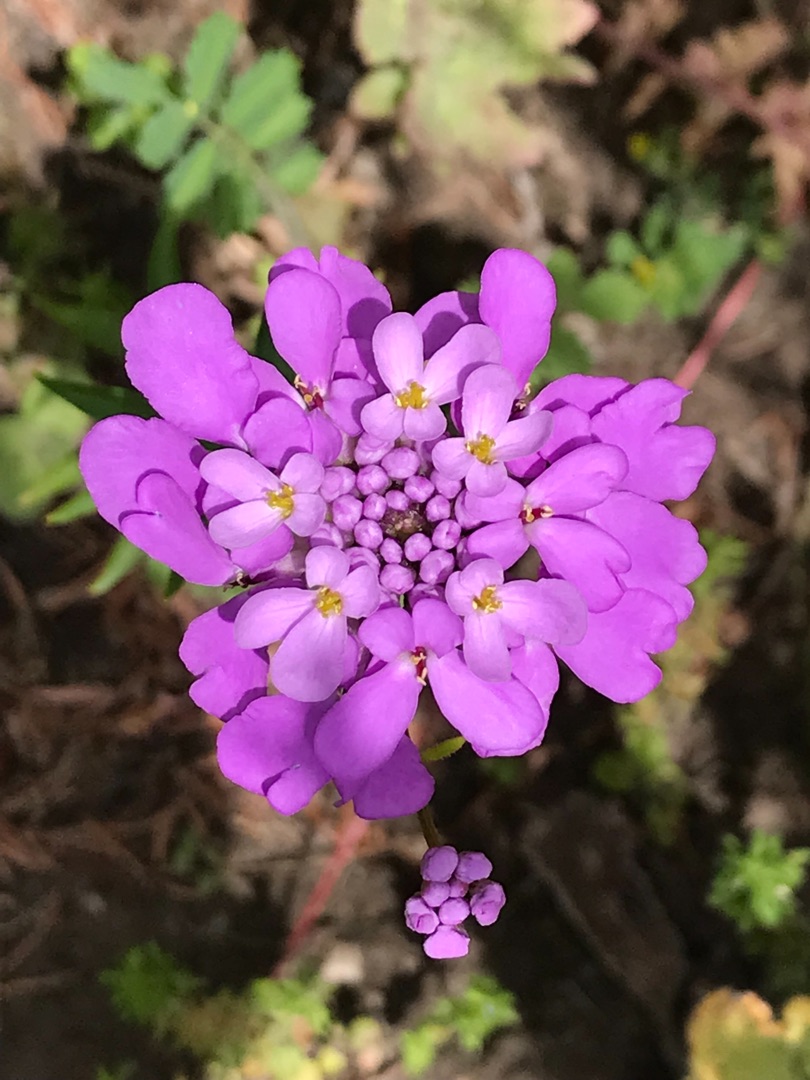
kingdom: Plantae
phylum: Tracheophyta
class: Magnoliopsida
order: Brassicales
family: Brassicaceae
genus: Iberis
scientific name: Iberis umbellata
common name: Skærm-sløjfeblomst
